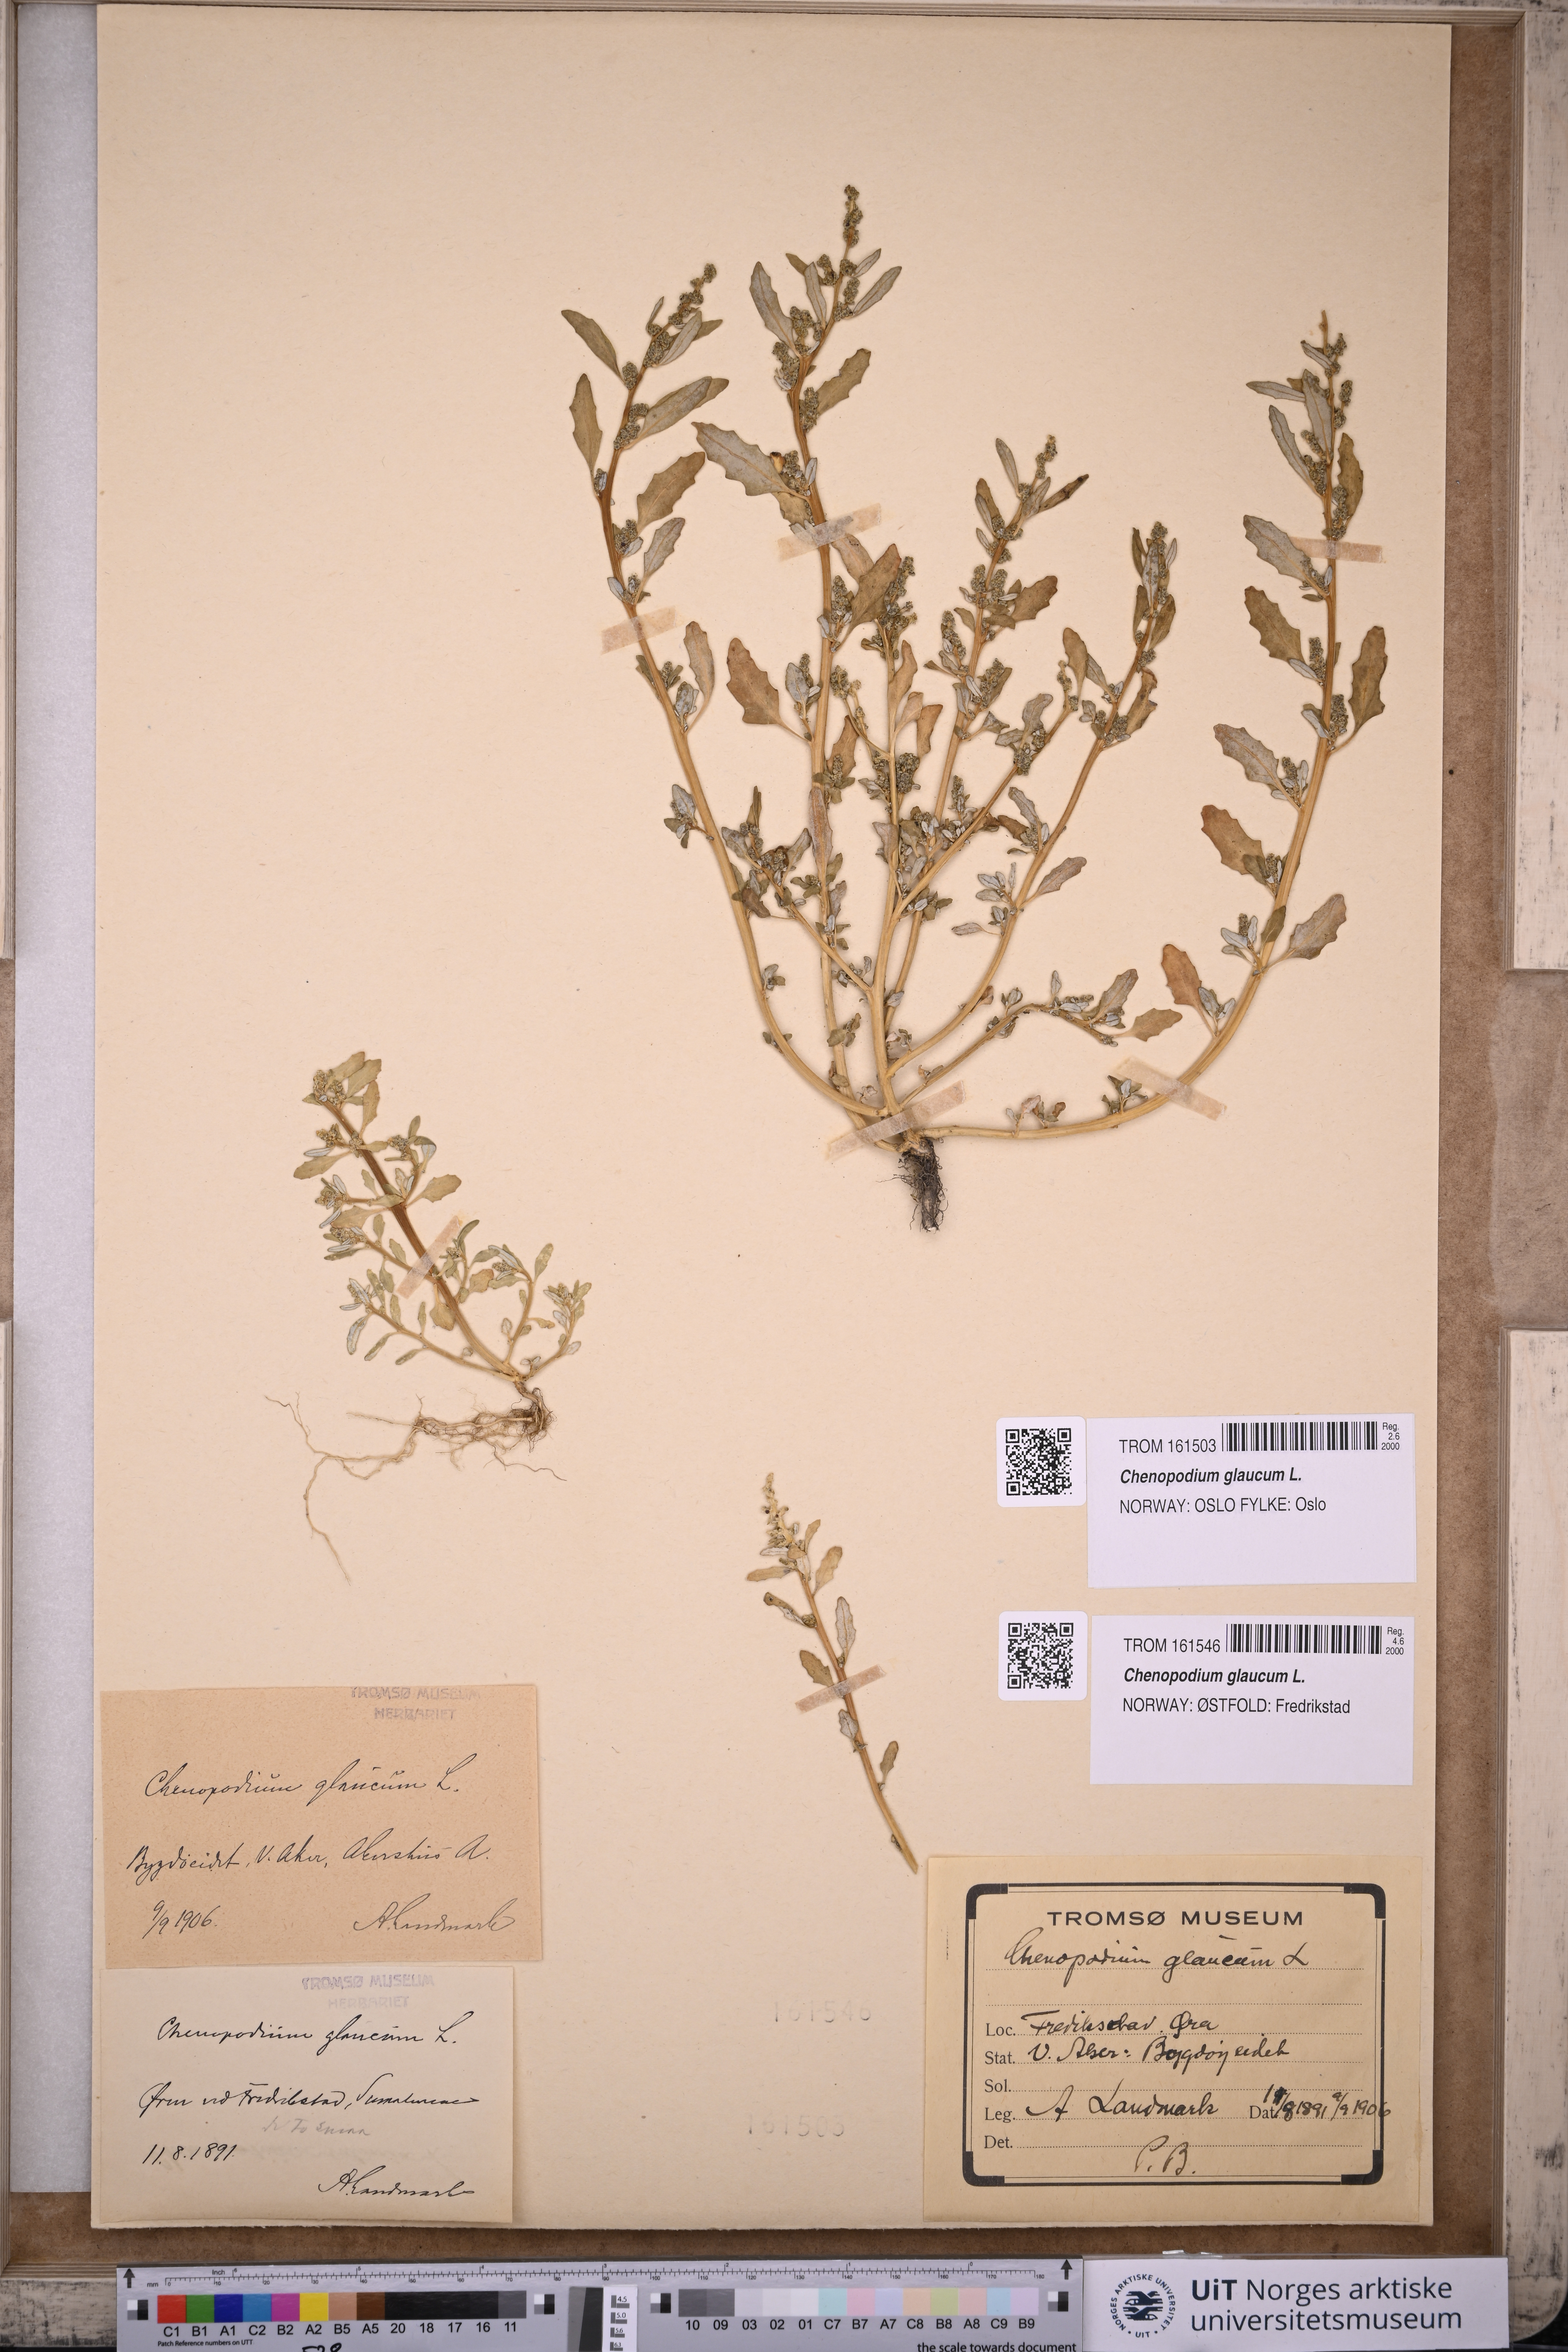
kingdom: Plantae
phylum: Tracheophyta
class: Magnoliopsida
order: Caryophyllales
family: Amaranthaceae
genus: Oxybasis
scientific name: Oxybasis glauca
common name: Glaucous goosefoot
